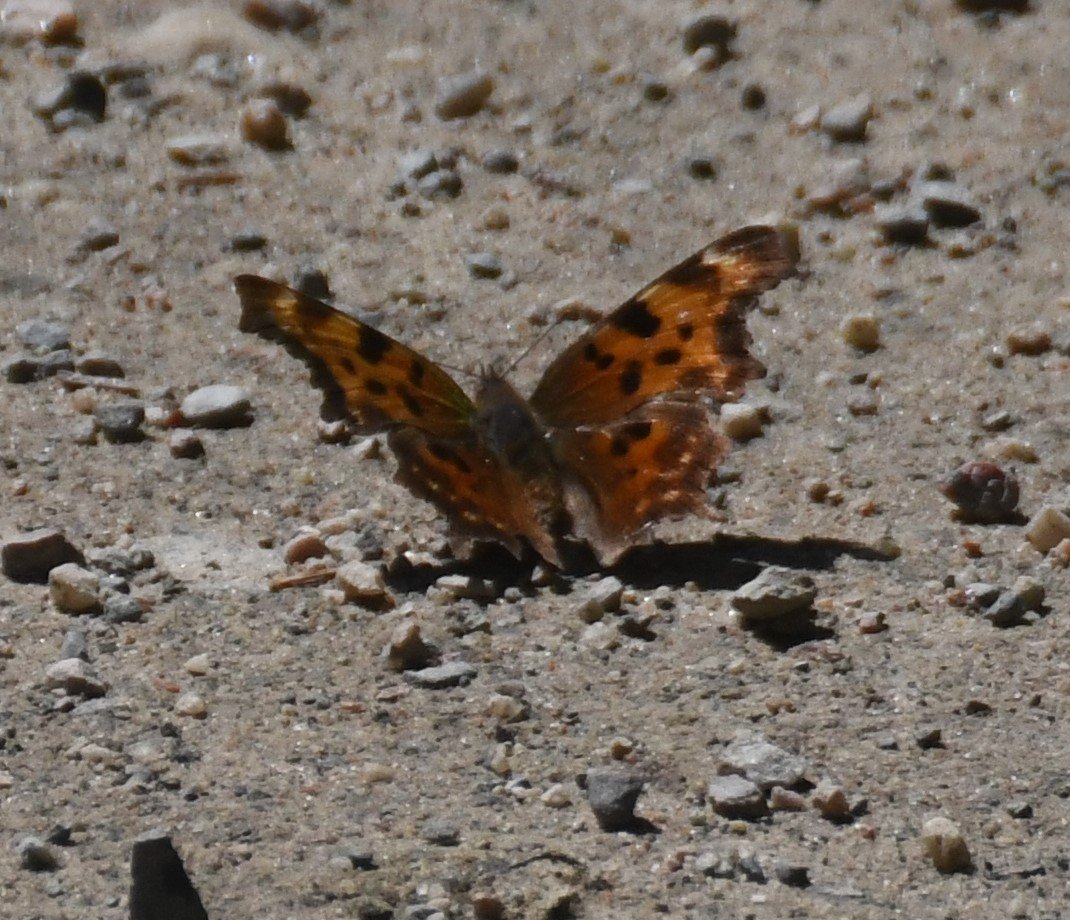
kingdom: Animalia
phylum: Arthropoda
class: Insecta
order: Lepidoptera
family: Nymphalidae
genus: Polygonia
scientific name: Polygonia faunus
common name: Green Comma
